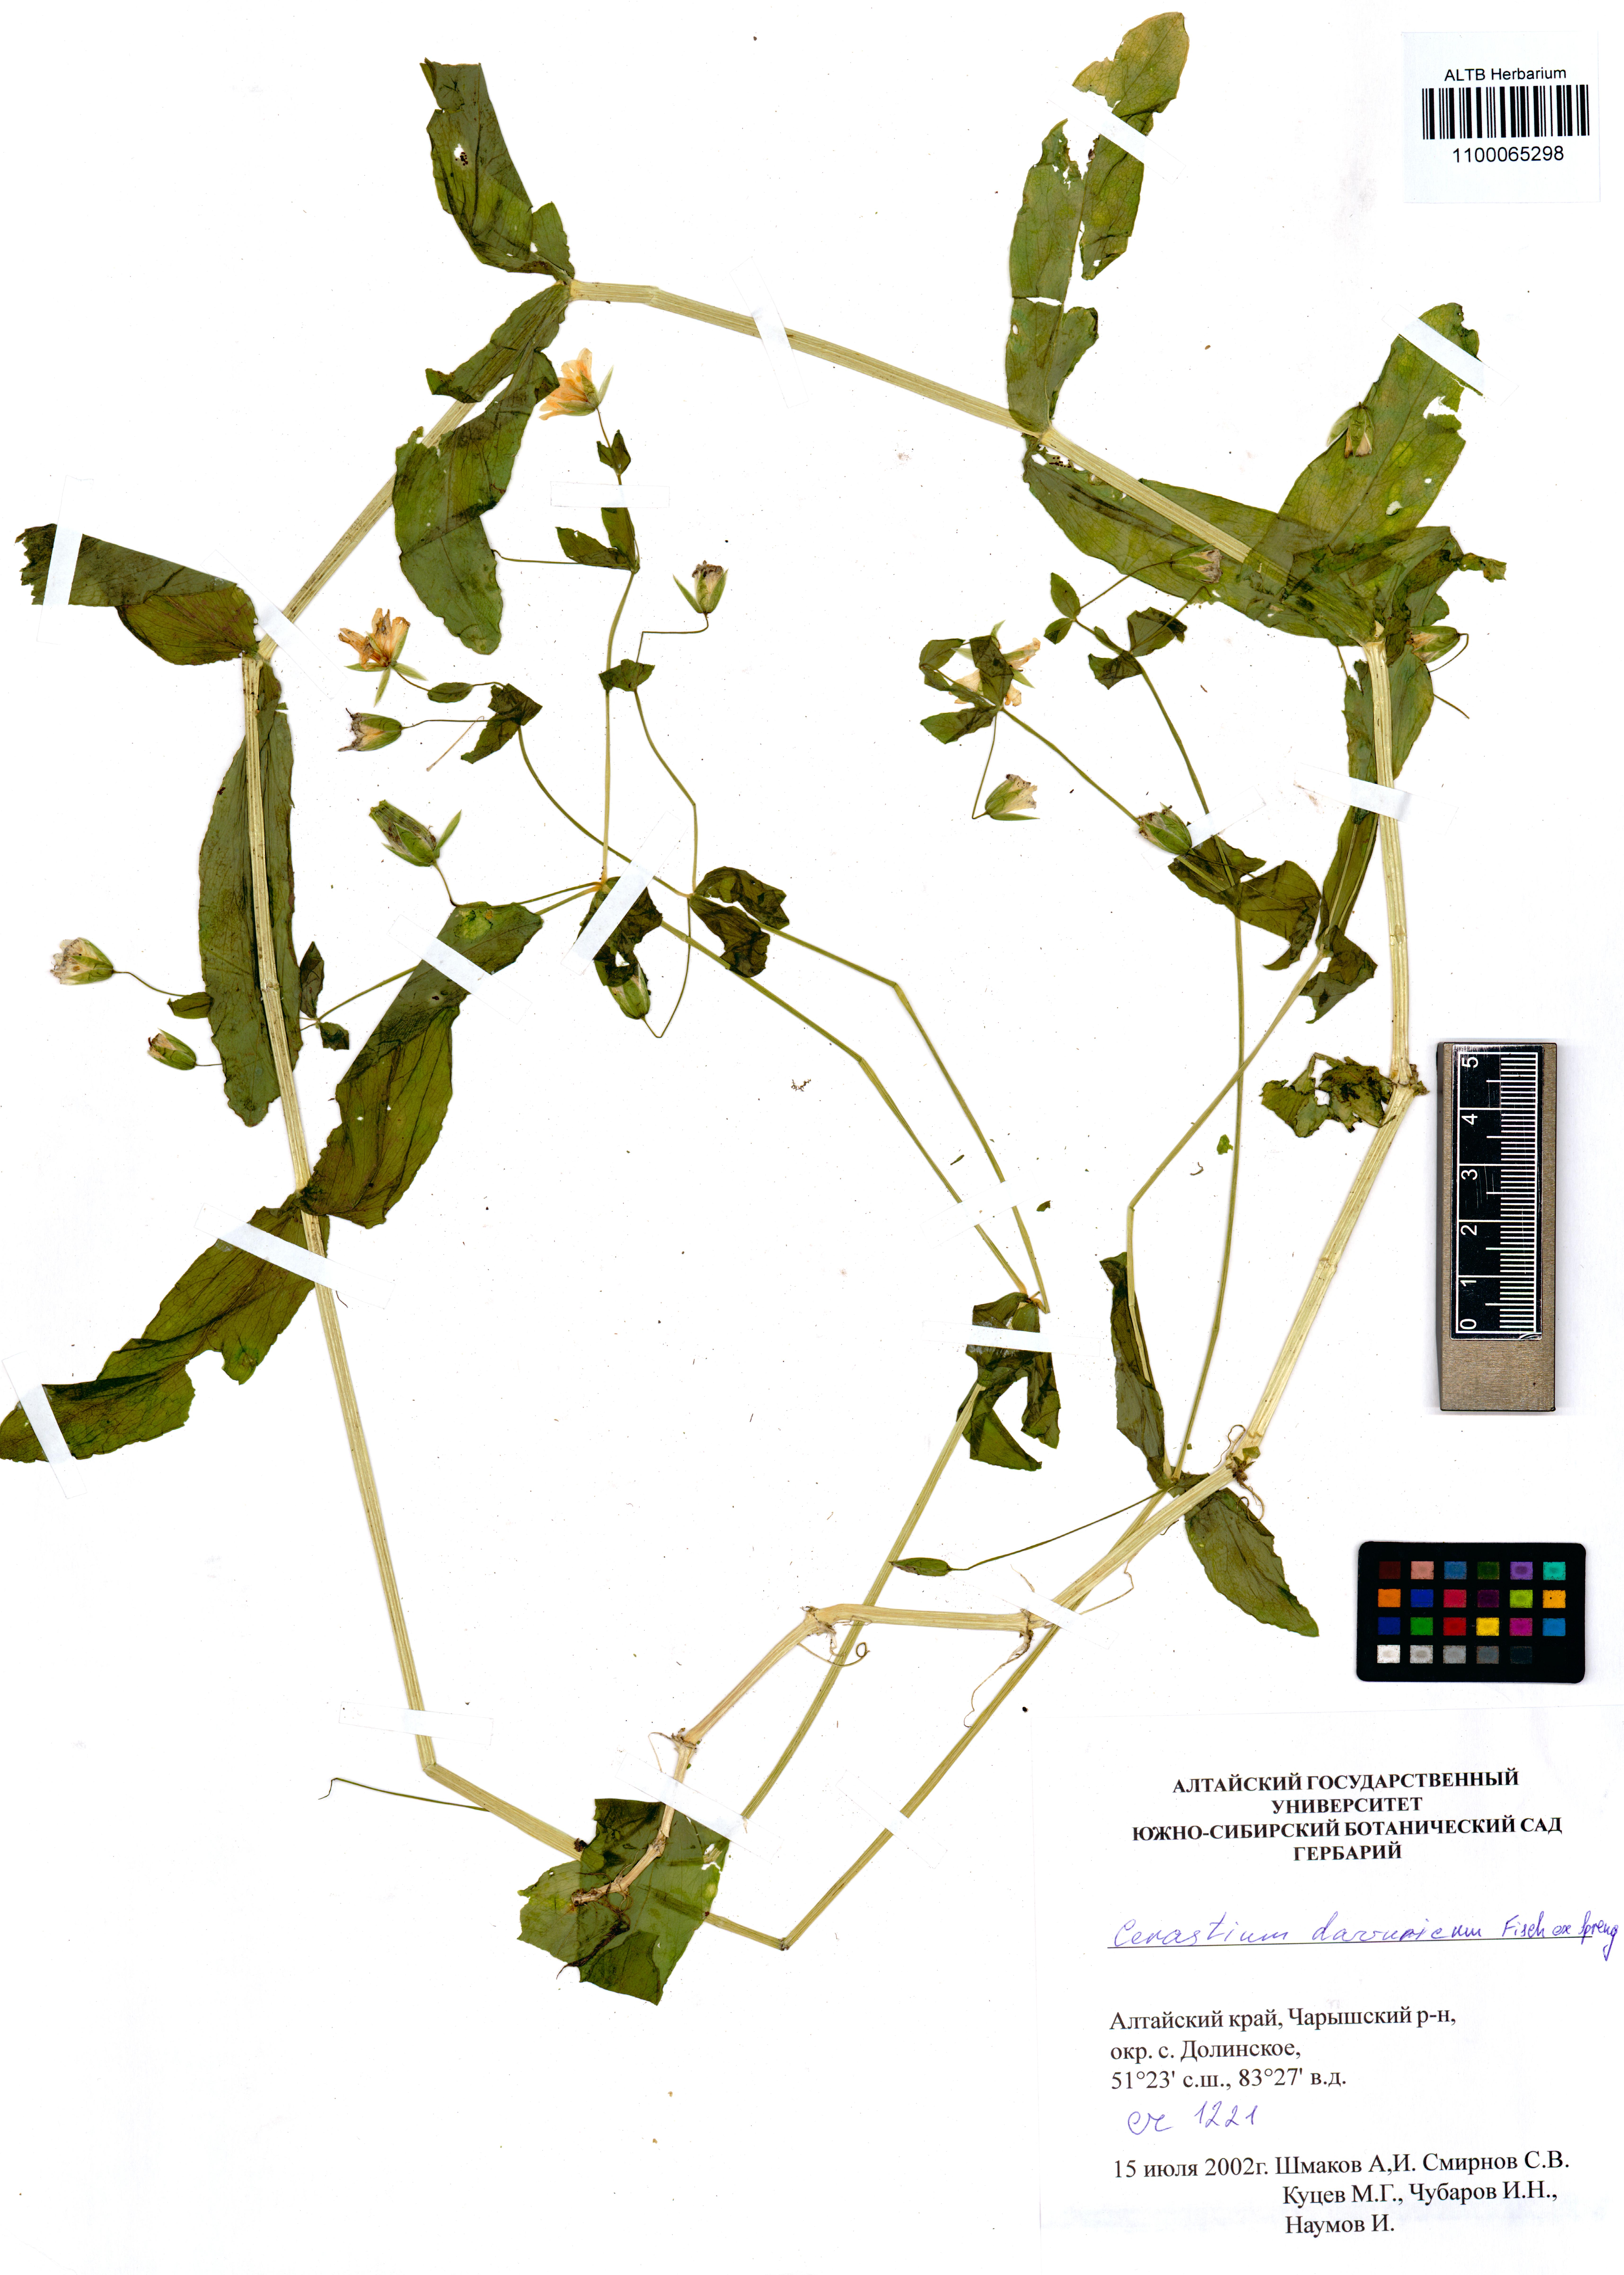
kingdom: Plantae
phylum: Tracheophyta
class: Magnoliopsida
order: Caryophyllales
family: Caryophyllaceae
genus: Dichodon
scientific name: Dichodon davuricum
